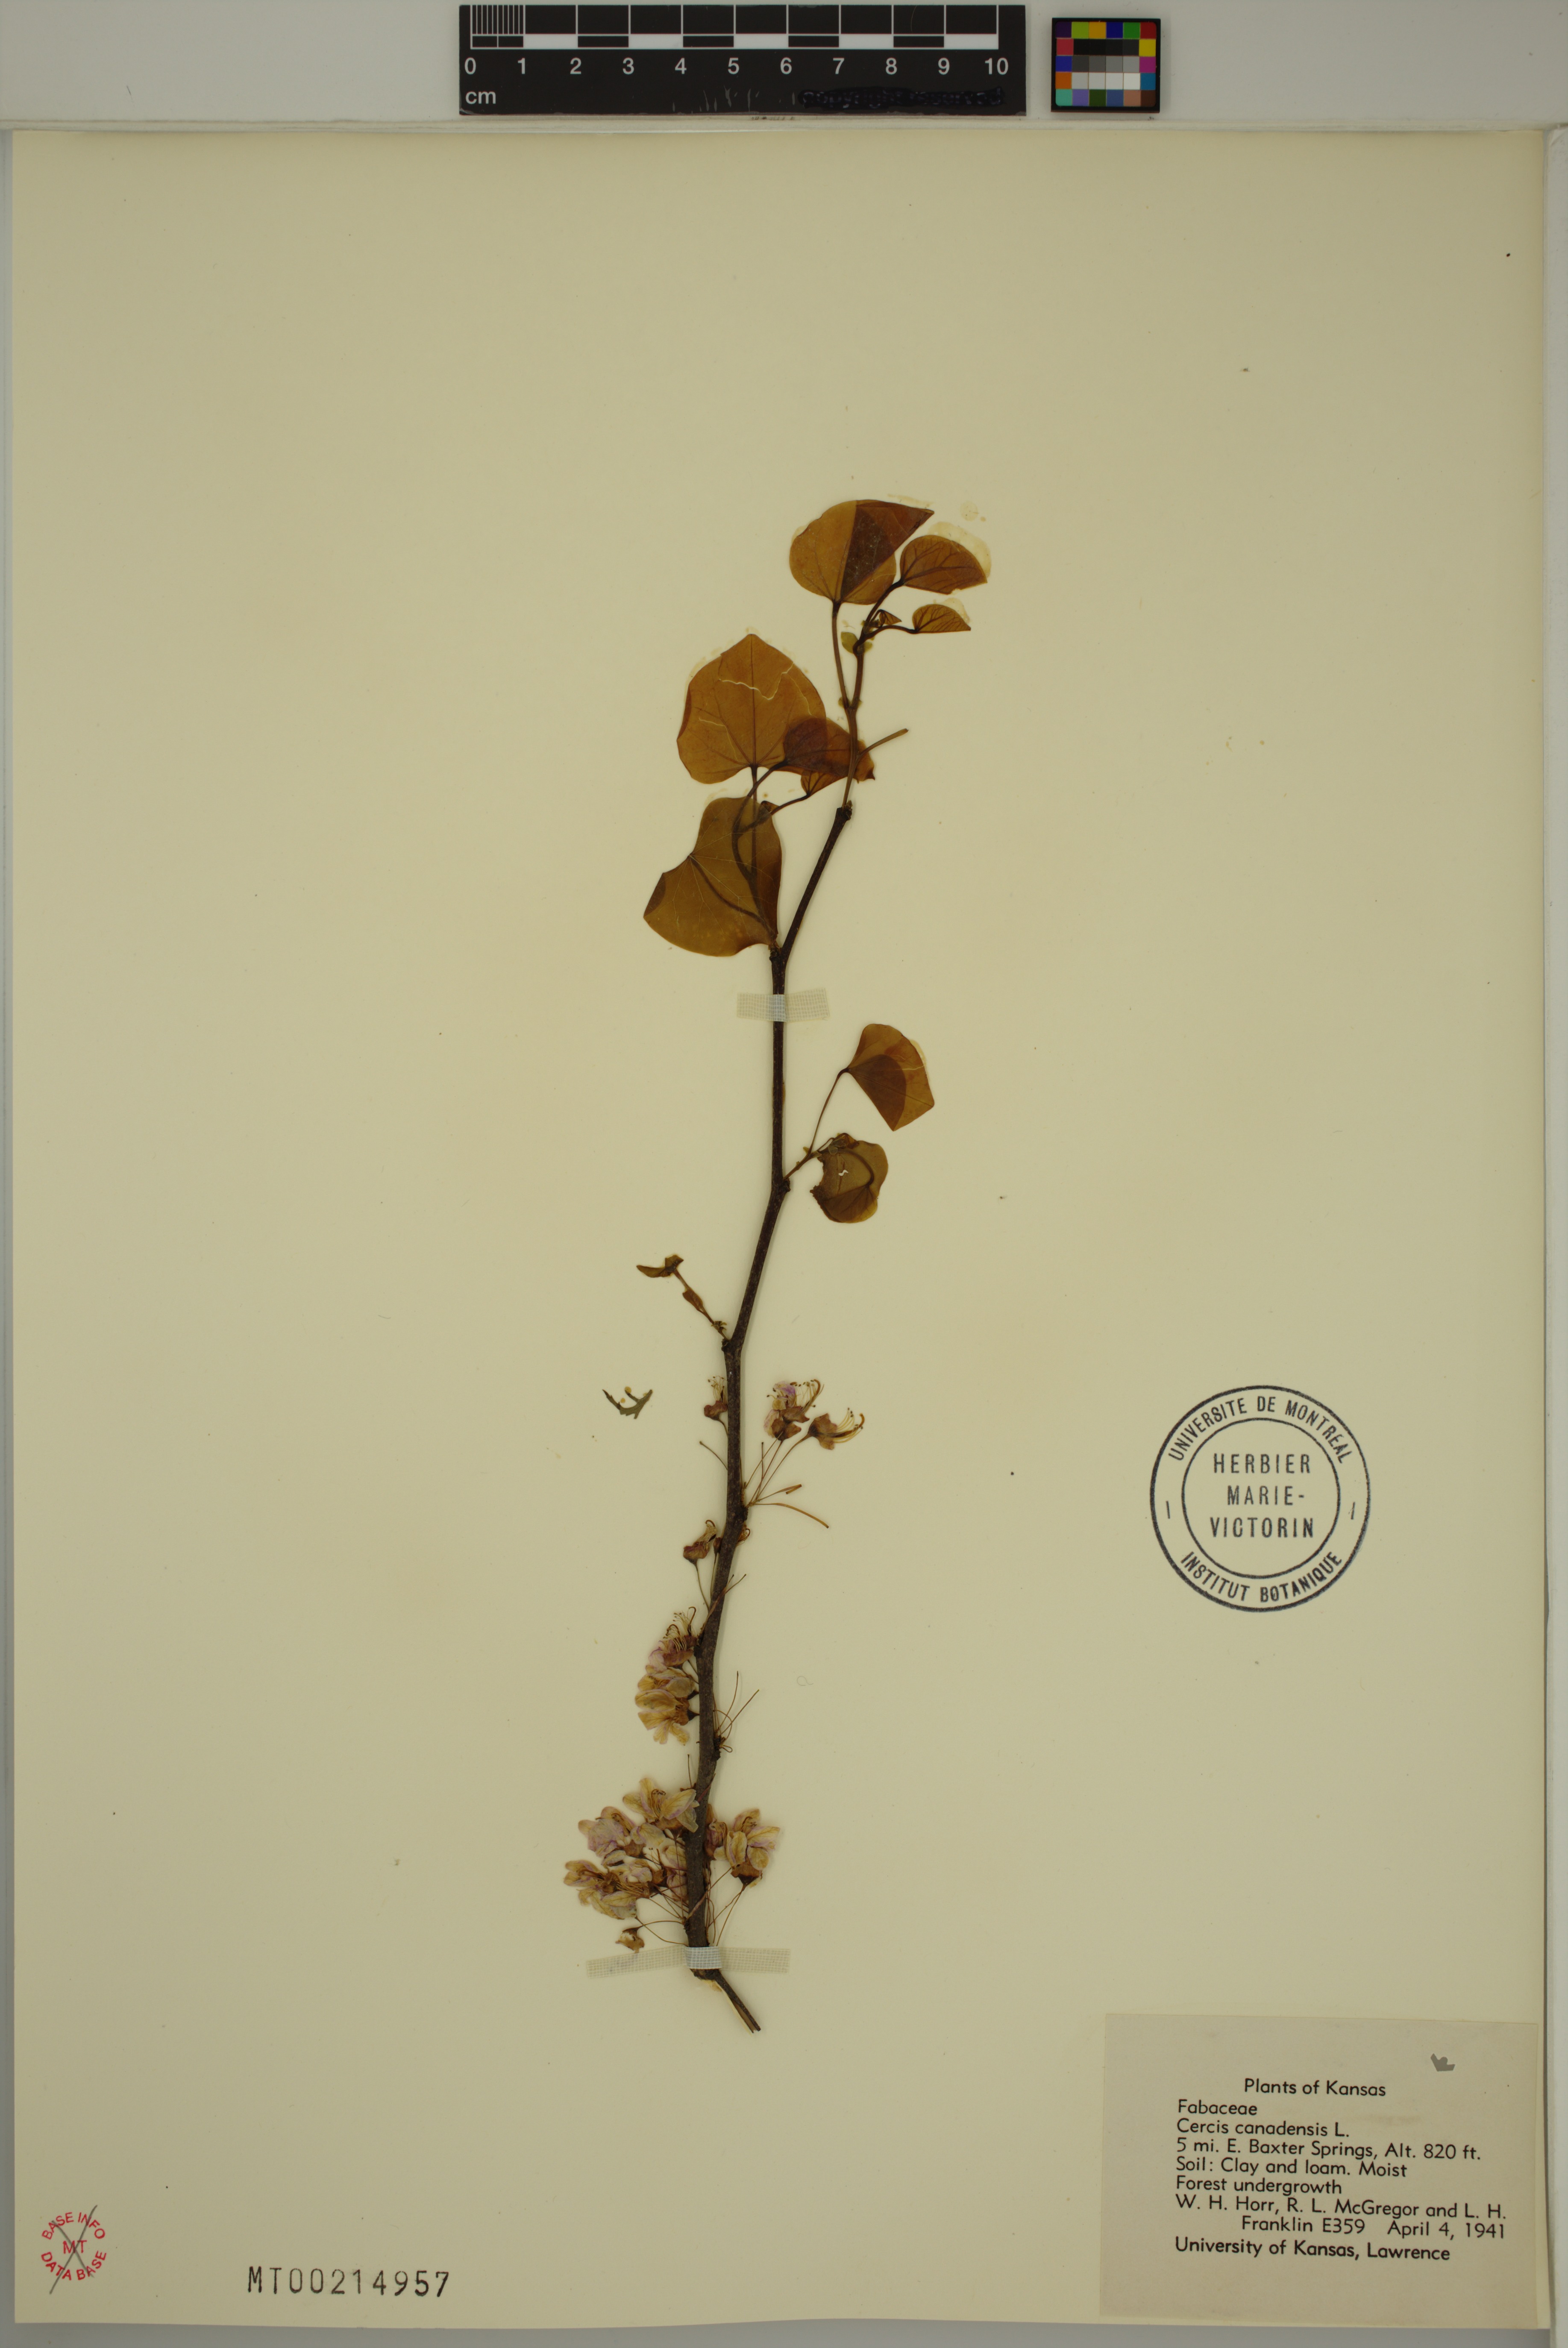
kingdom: Plantae
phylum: Tracheophyta
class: Magnoliopsida
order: Fabales
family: Fabaceae
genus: Cercis
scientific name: Cercis canadensis
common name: Eastern redbud
